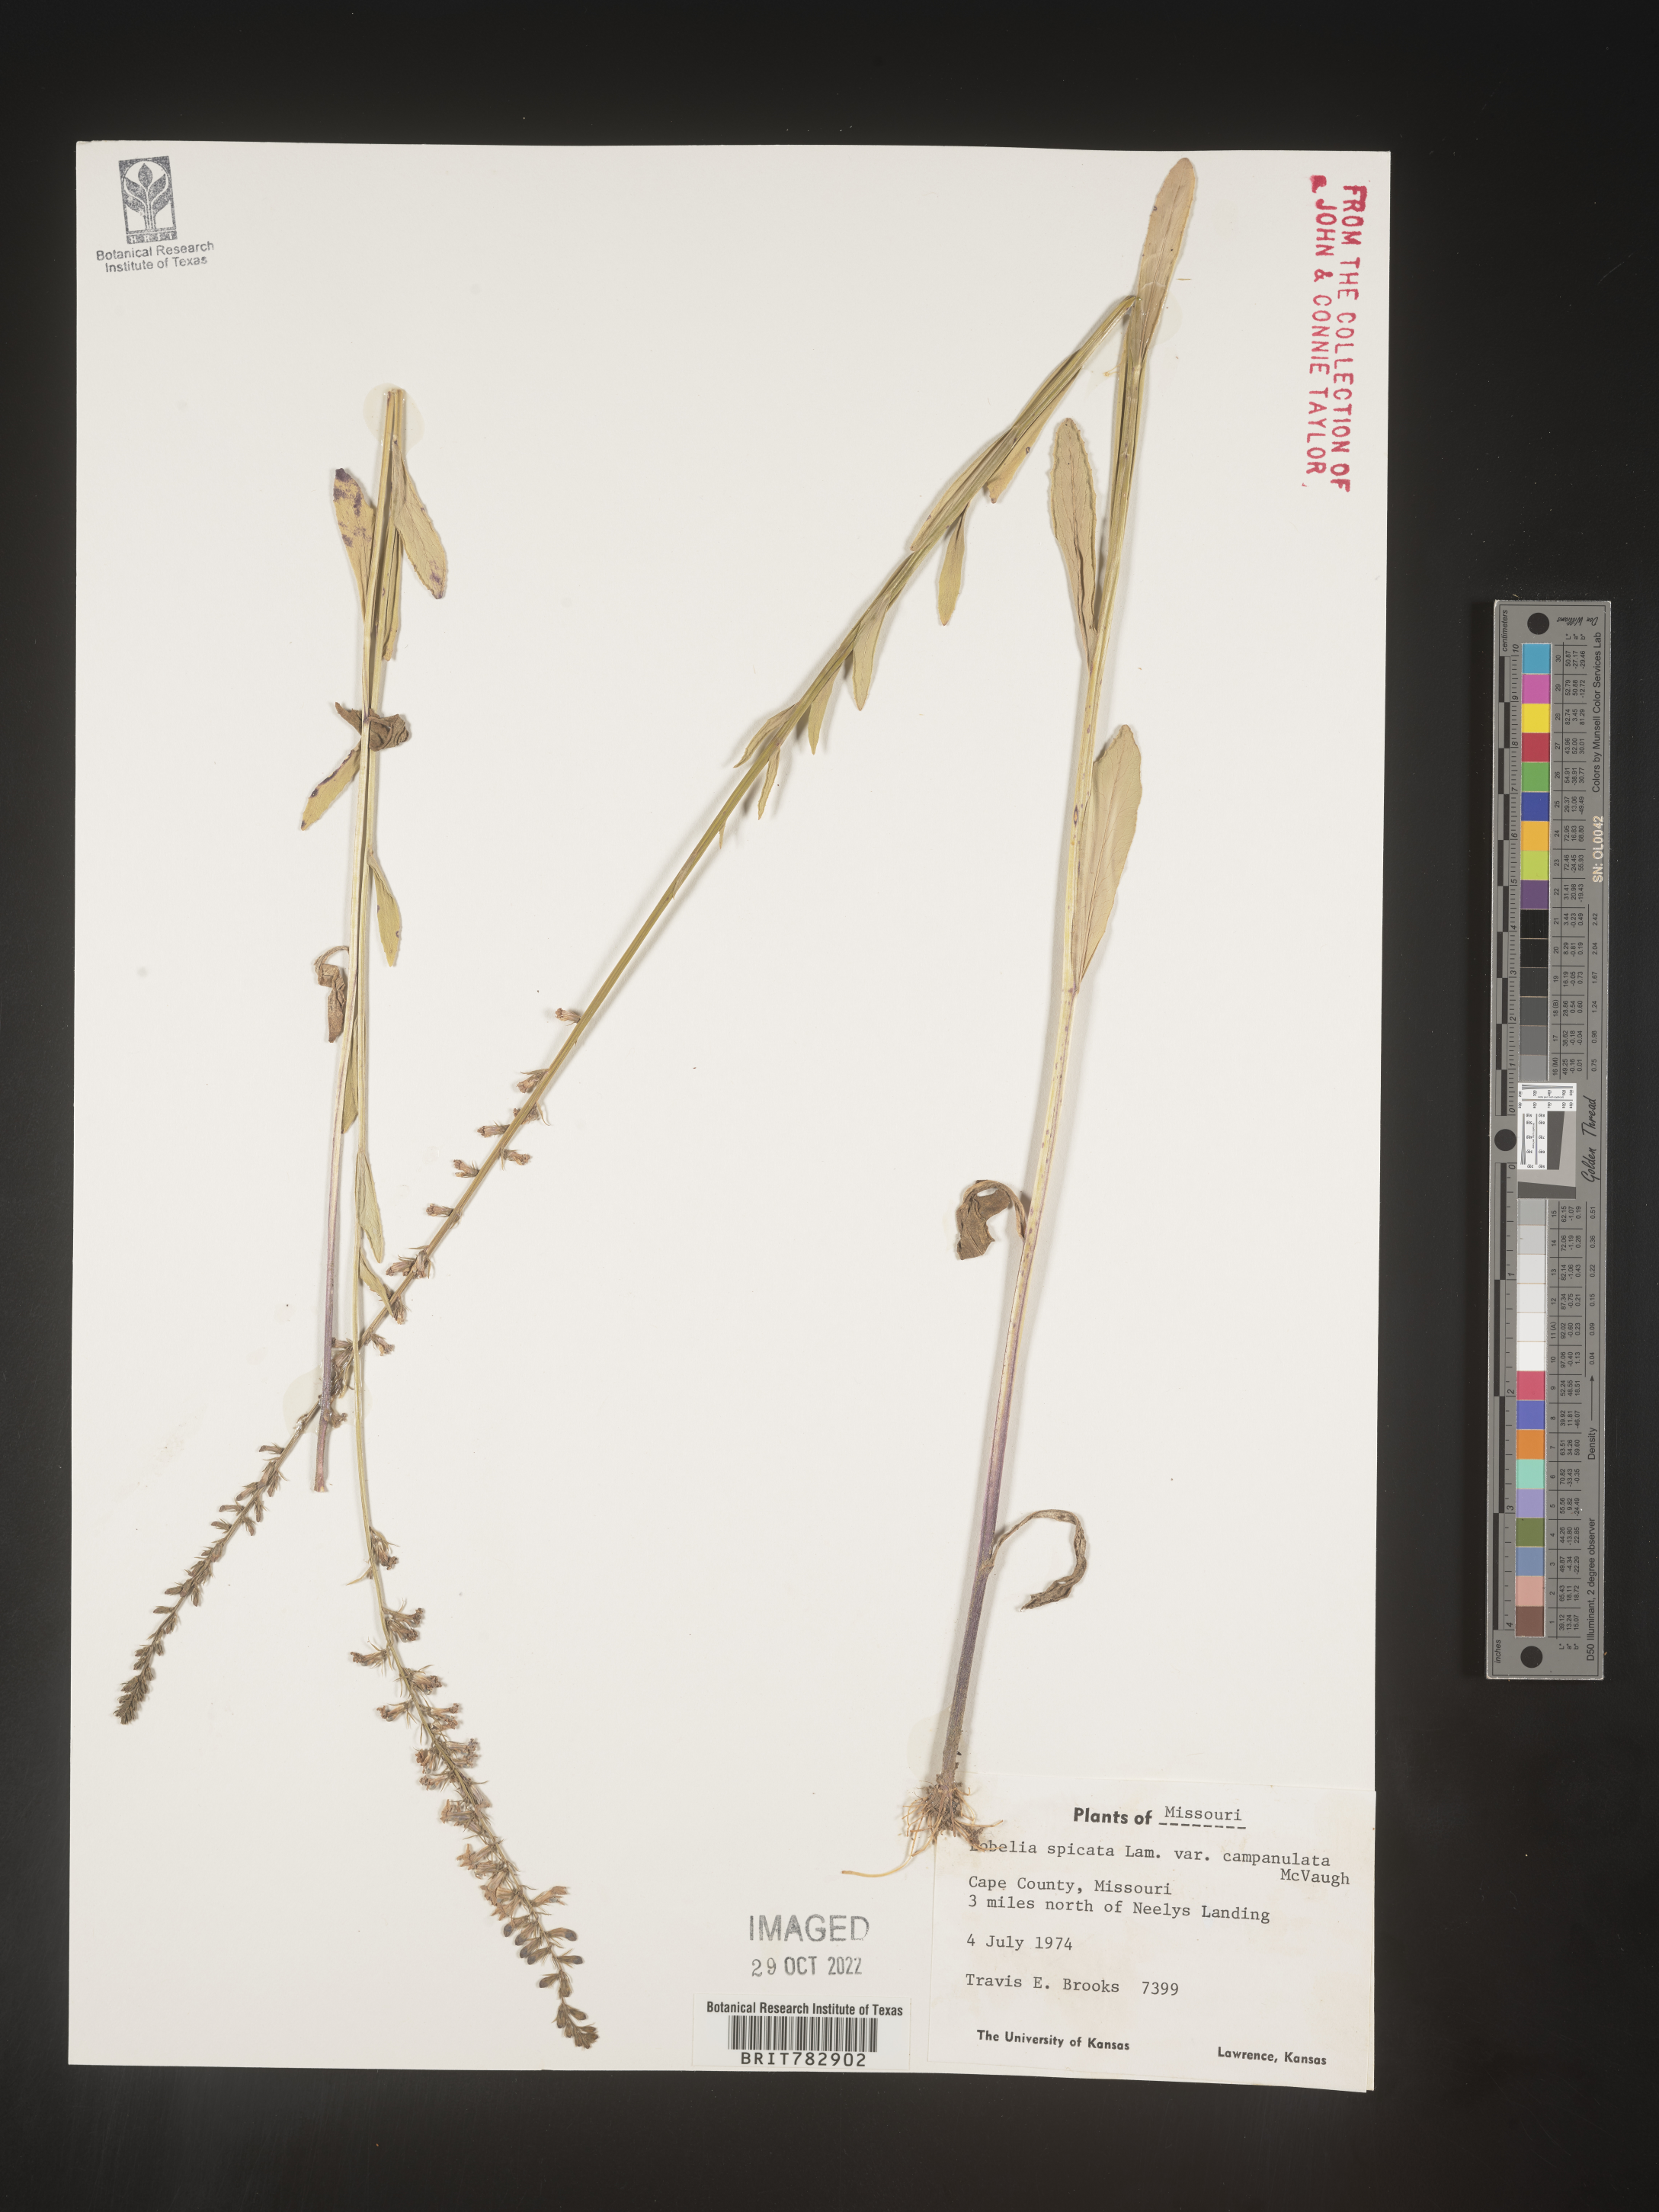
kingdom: Plantae
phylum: Tracheophyta
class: Magnoliopsida
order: Asterales
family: Campanulaceae
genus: Lobelia
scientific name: Lobelia spicata
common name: Pale-spike lobelia
